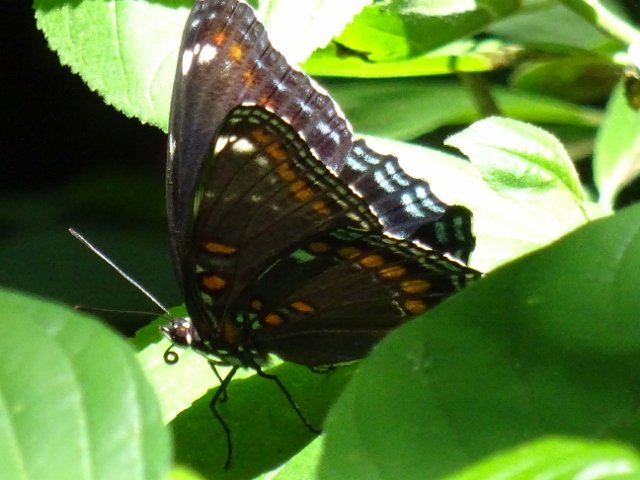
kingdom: Animalia
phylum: Arthropoda
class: Insecta
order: Lepidoptera
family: Nymphalidae
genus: Limenitis
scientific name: Limenitis astyanax
